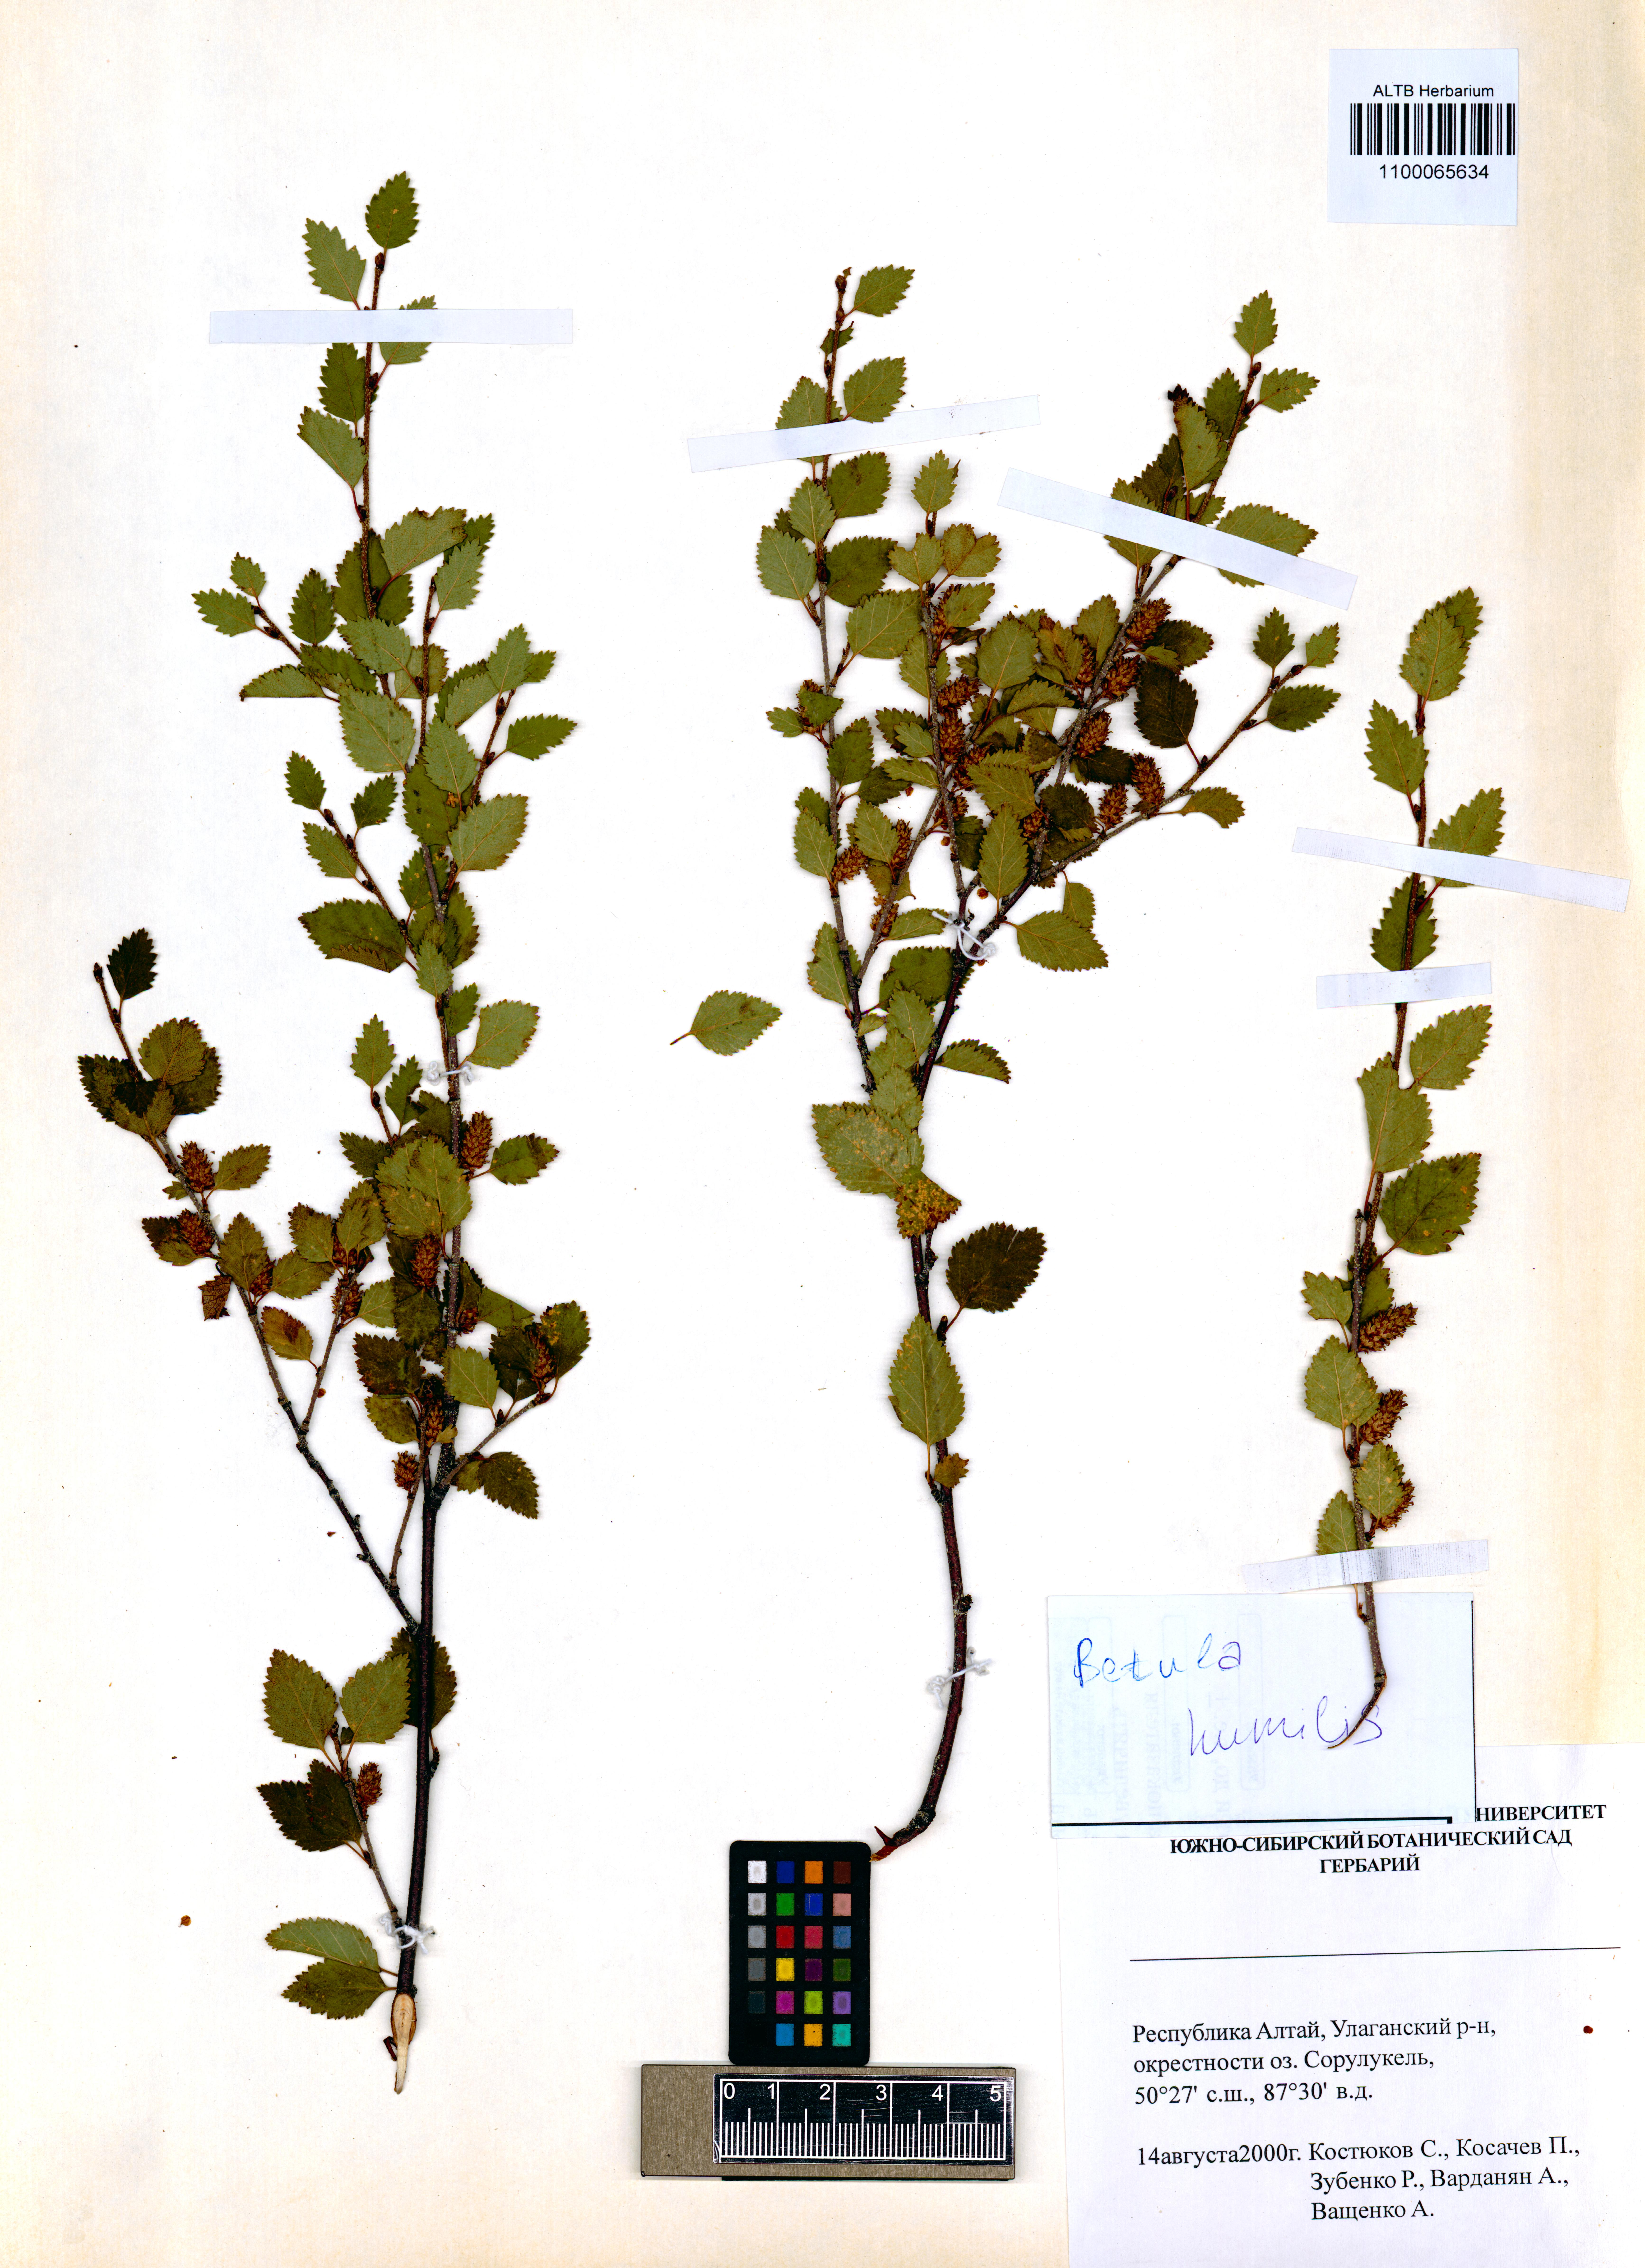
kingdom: Plantae
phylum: Tracheophyta
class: Magnoliopsida
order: Fagales
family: Betulaceae
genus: Betula
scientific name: Betula humilis
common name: Shrubby birch
